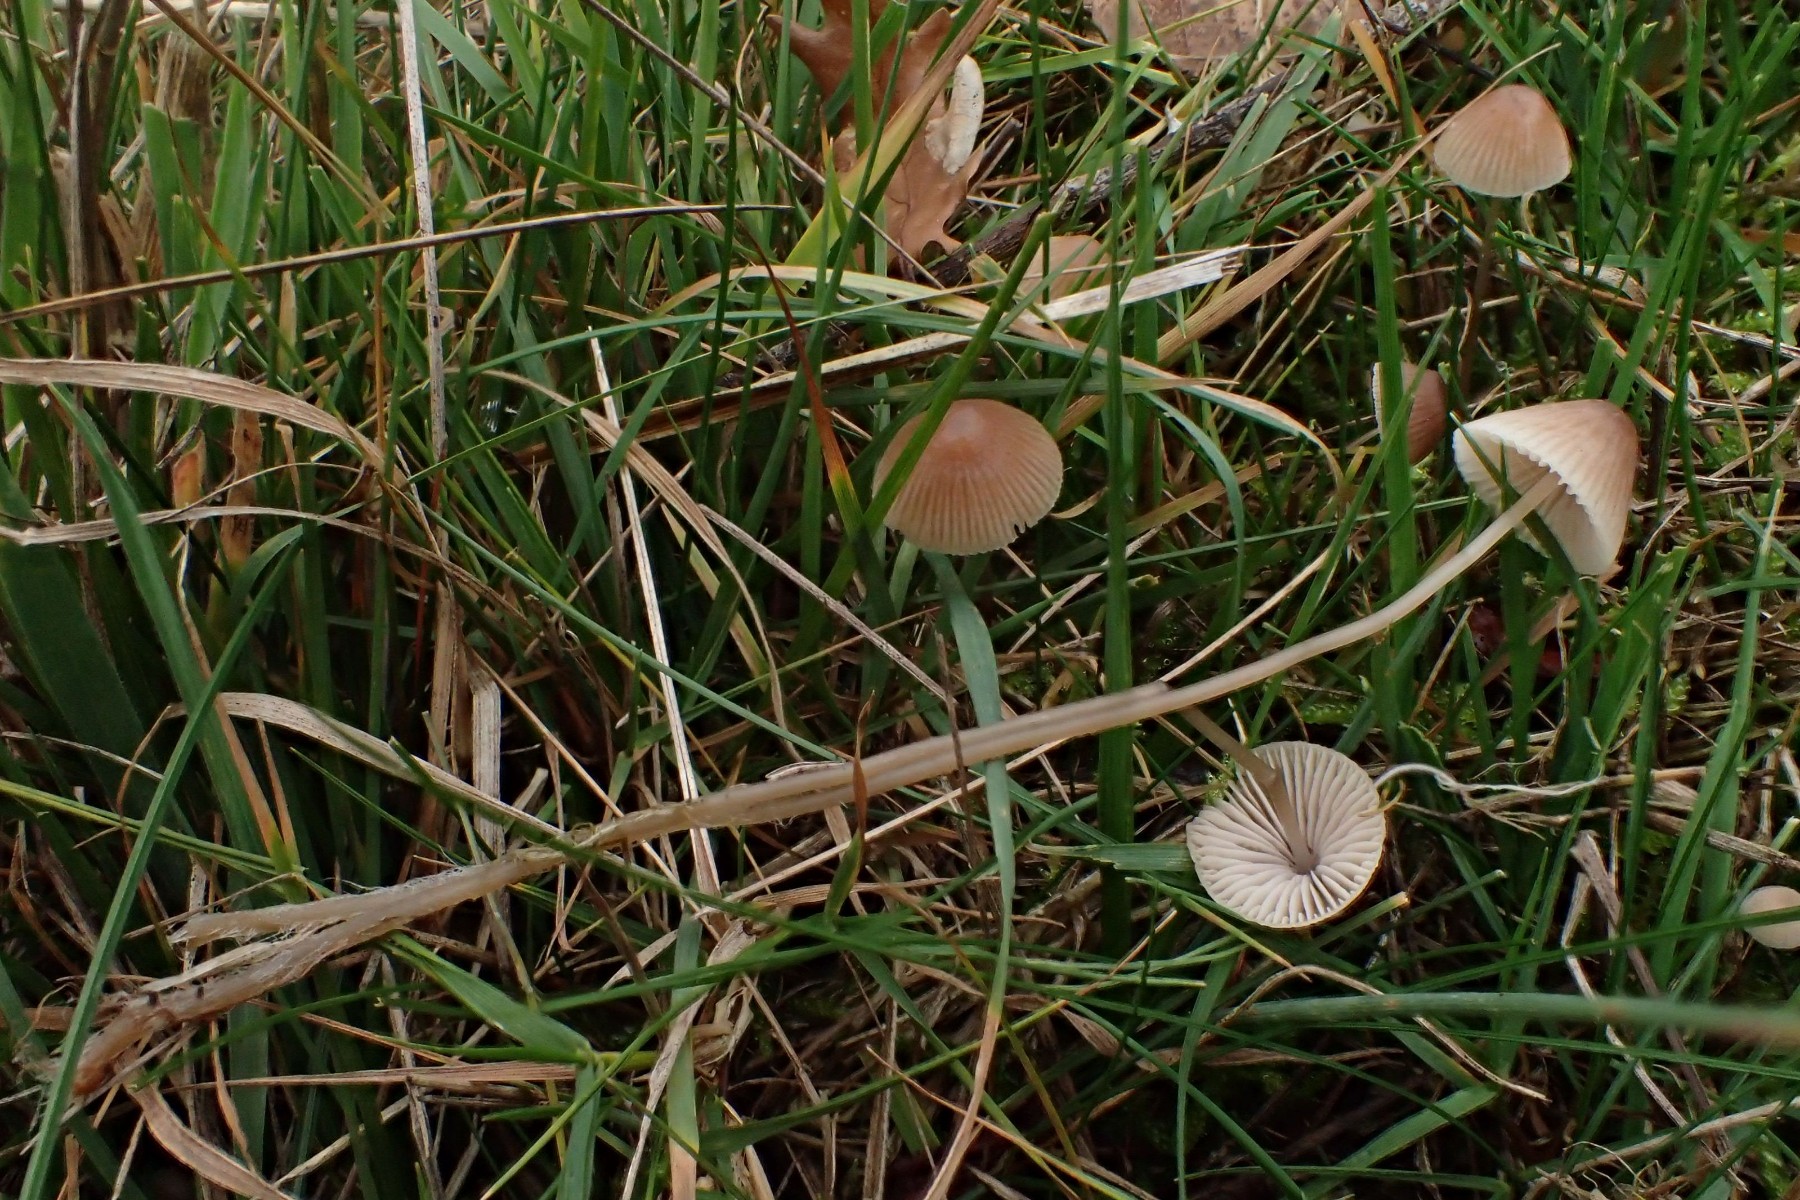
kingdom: Fungi
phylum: Basidiomycota
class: Agaricomycetes
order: Agaricales
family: Mycenaceae
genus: Mycena
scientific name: Mycena
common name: huesvamp
